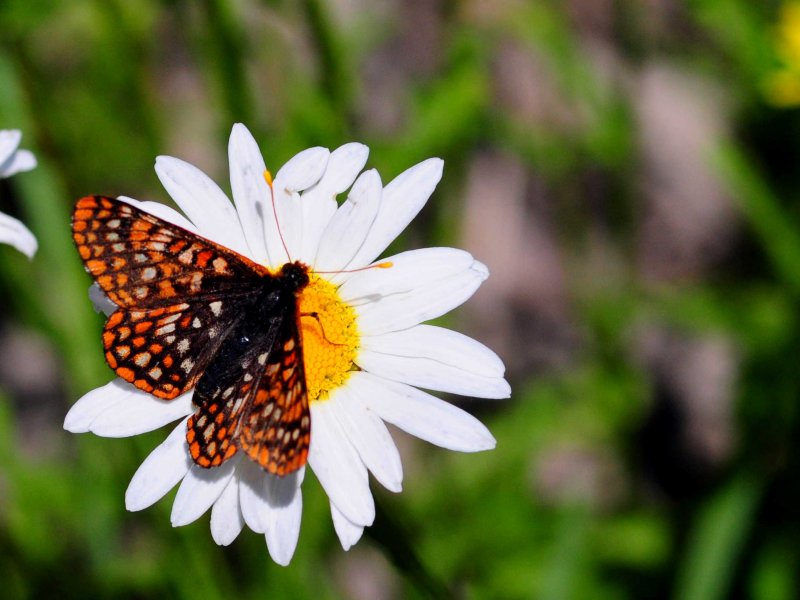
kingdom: Animalia
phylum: Arthropoda
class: Insecta
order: Lepidoptera
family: Nymphalidae
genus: Occidryas
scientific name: Occidryas anicia
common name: Anicia Checkerspot
